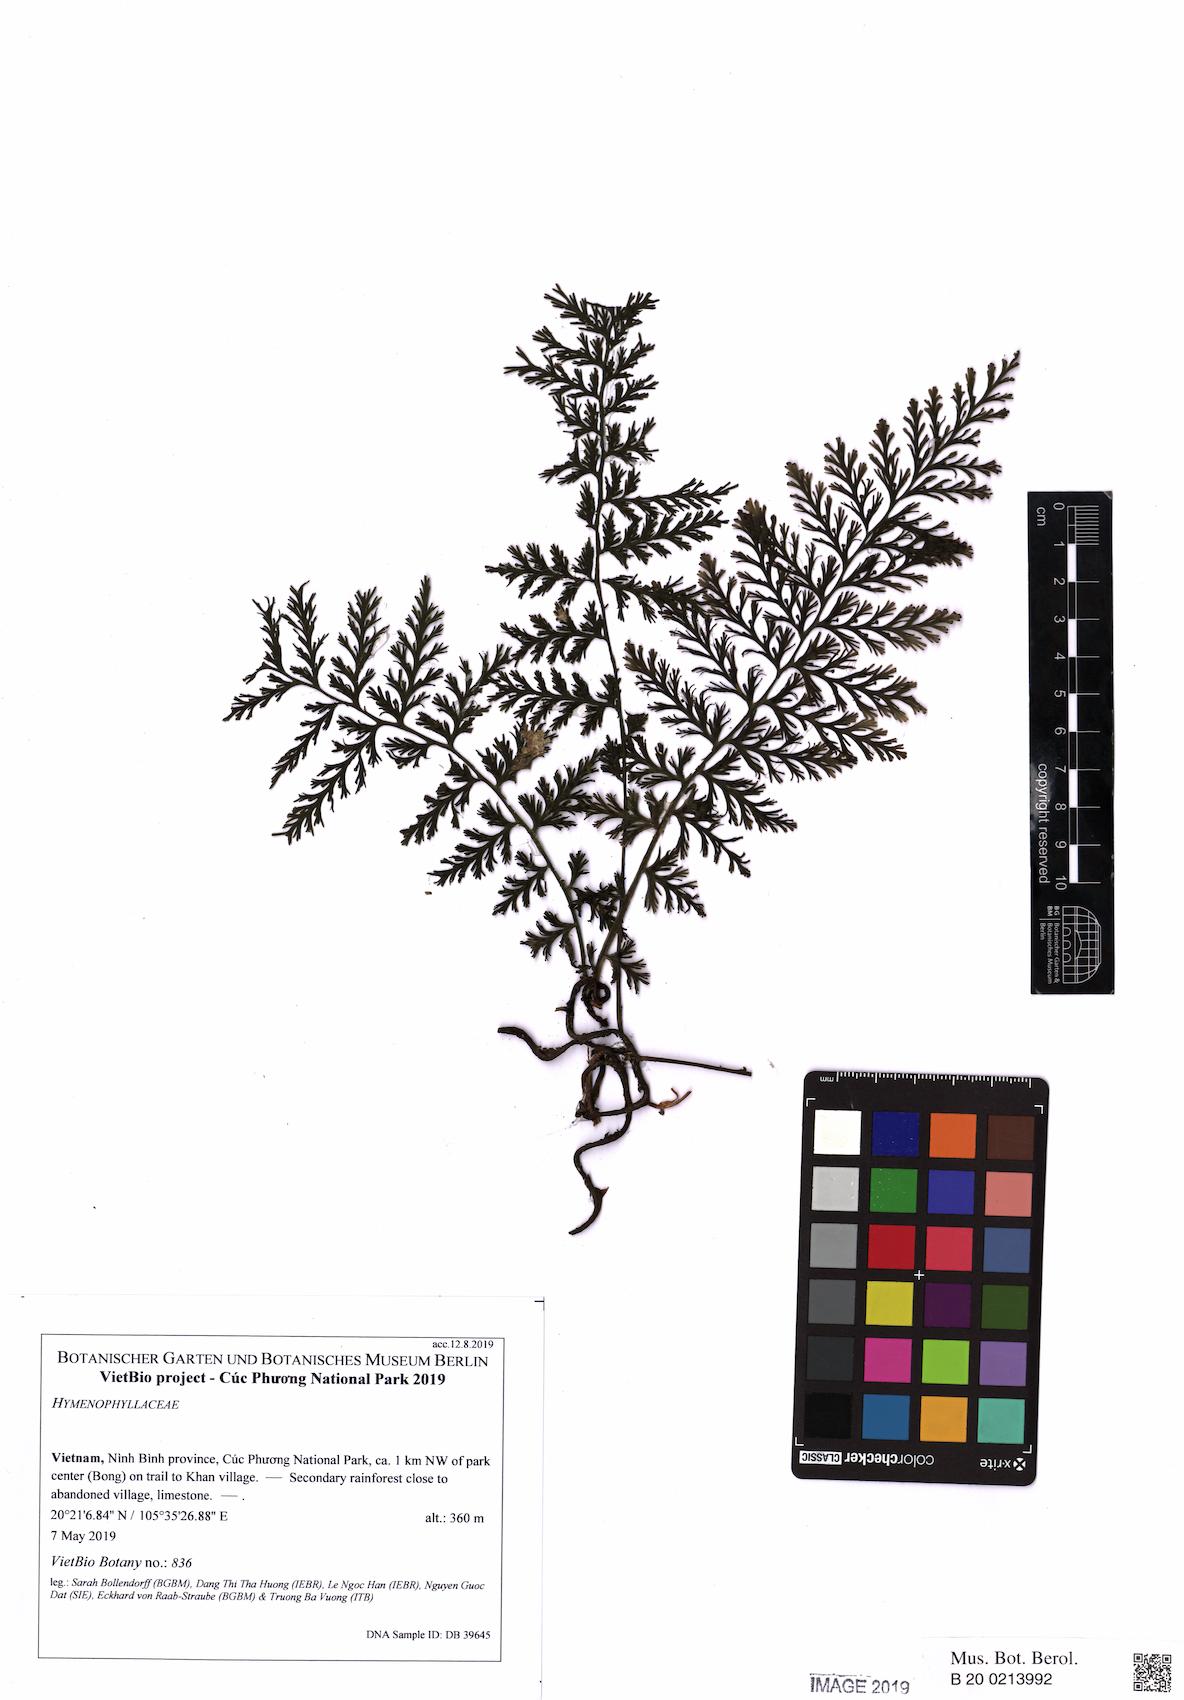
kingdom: Plantae
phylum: Tracheophyta
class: Polypodiopsida
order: Hymenophyllales
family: Hymenophyllaceae
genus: Vandenboschia
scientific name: Vandenboschia cystoseiroides
